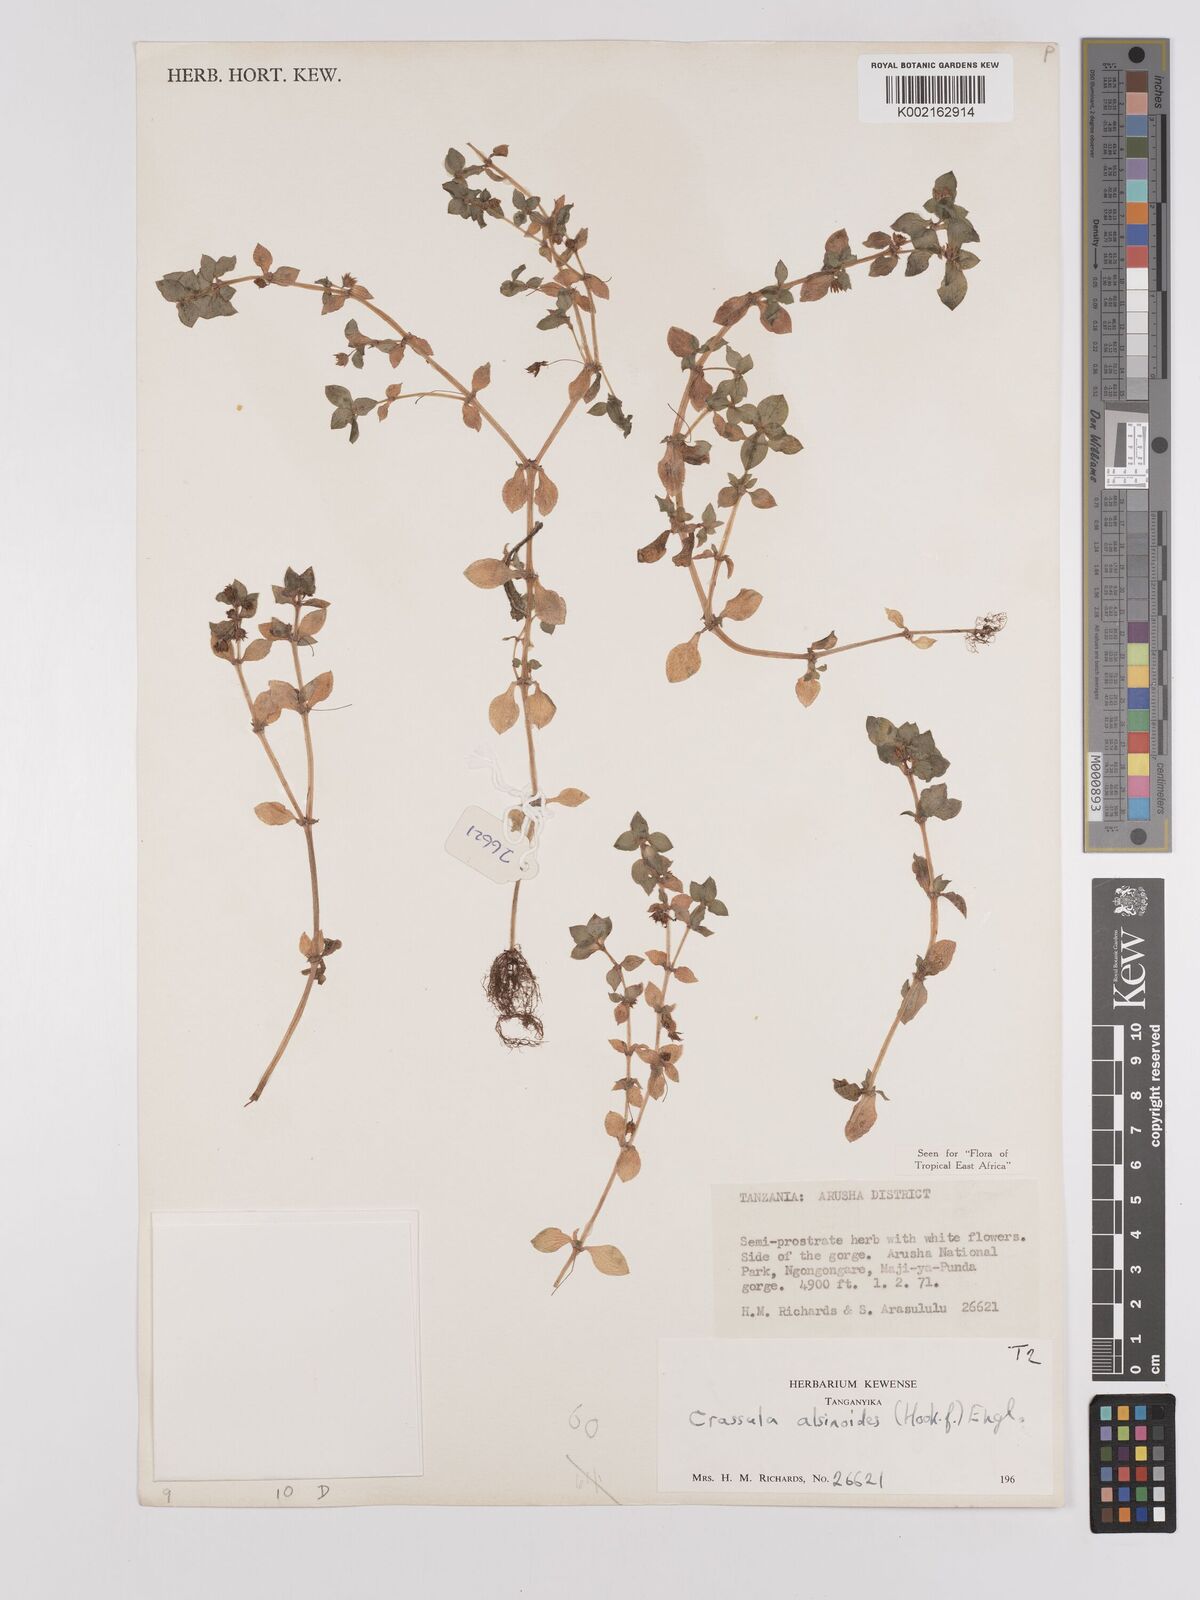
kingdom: Plantae
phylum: Tracheophyta
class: Magnoliopsida
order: Saxifragales
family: Crassulaceae
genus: Crassula
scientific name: Crassula alsinoides
